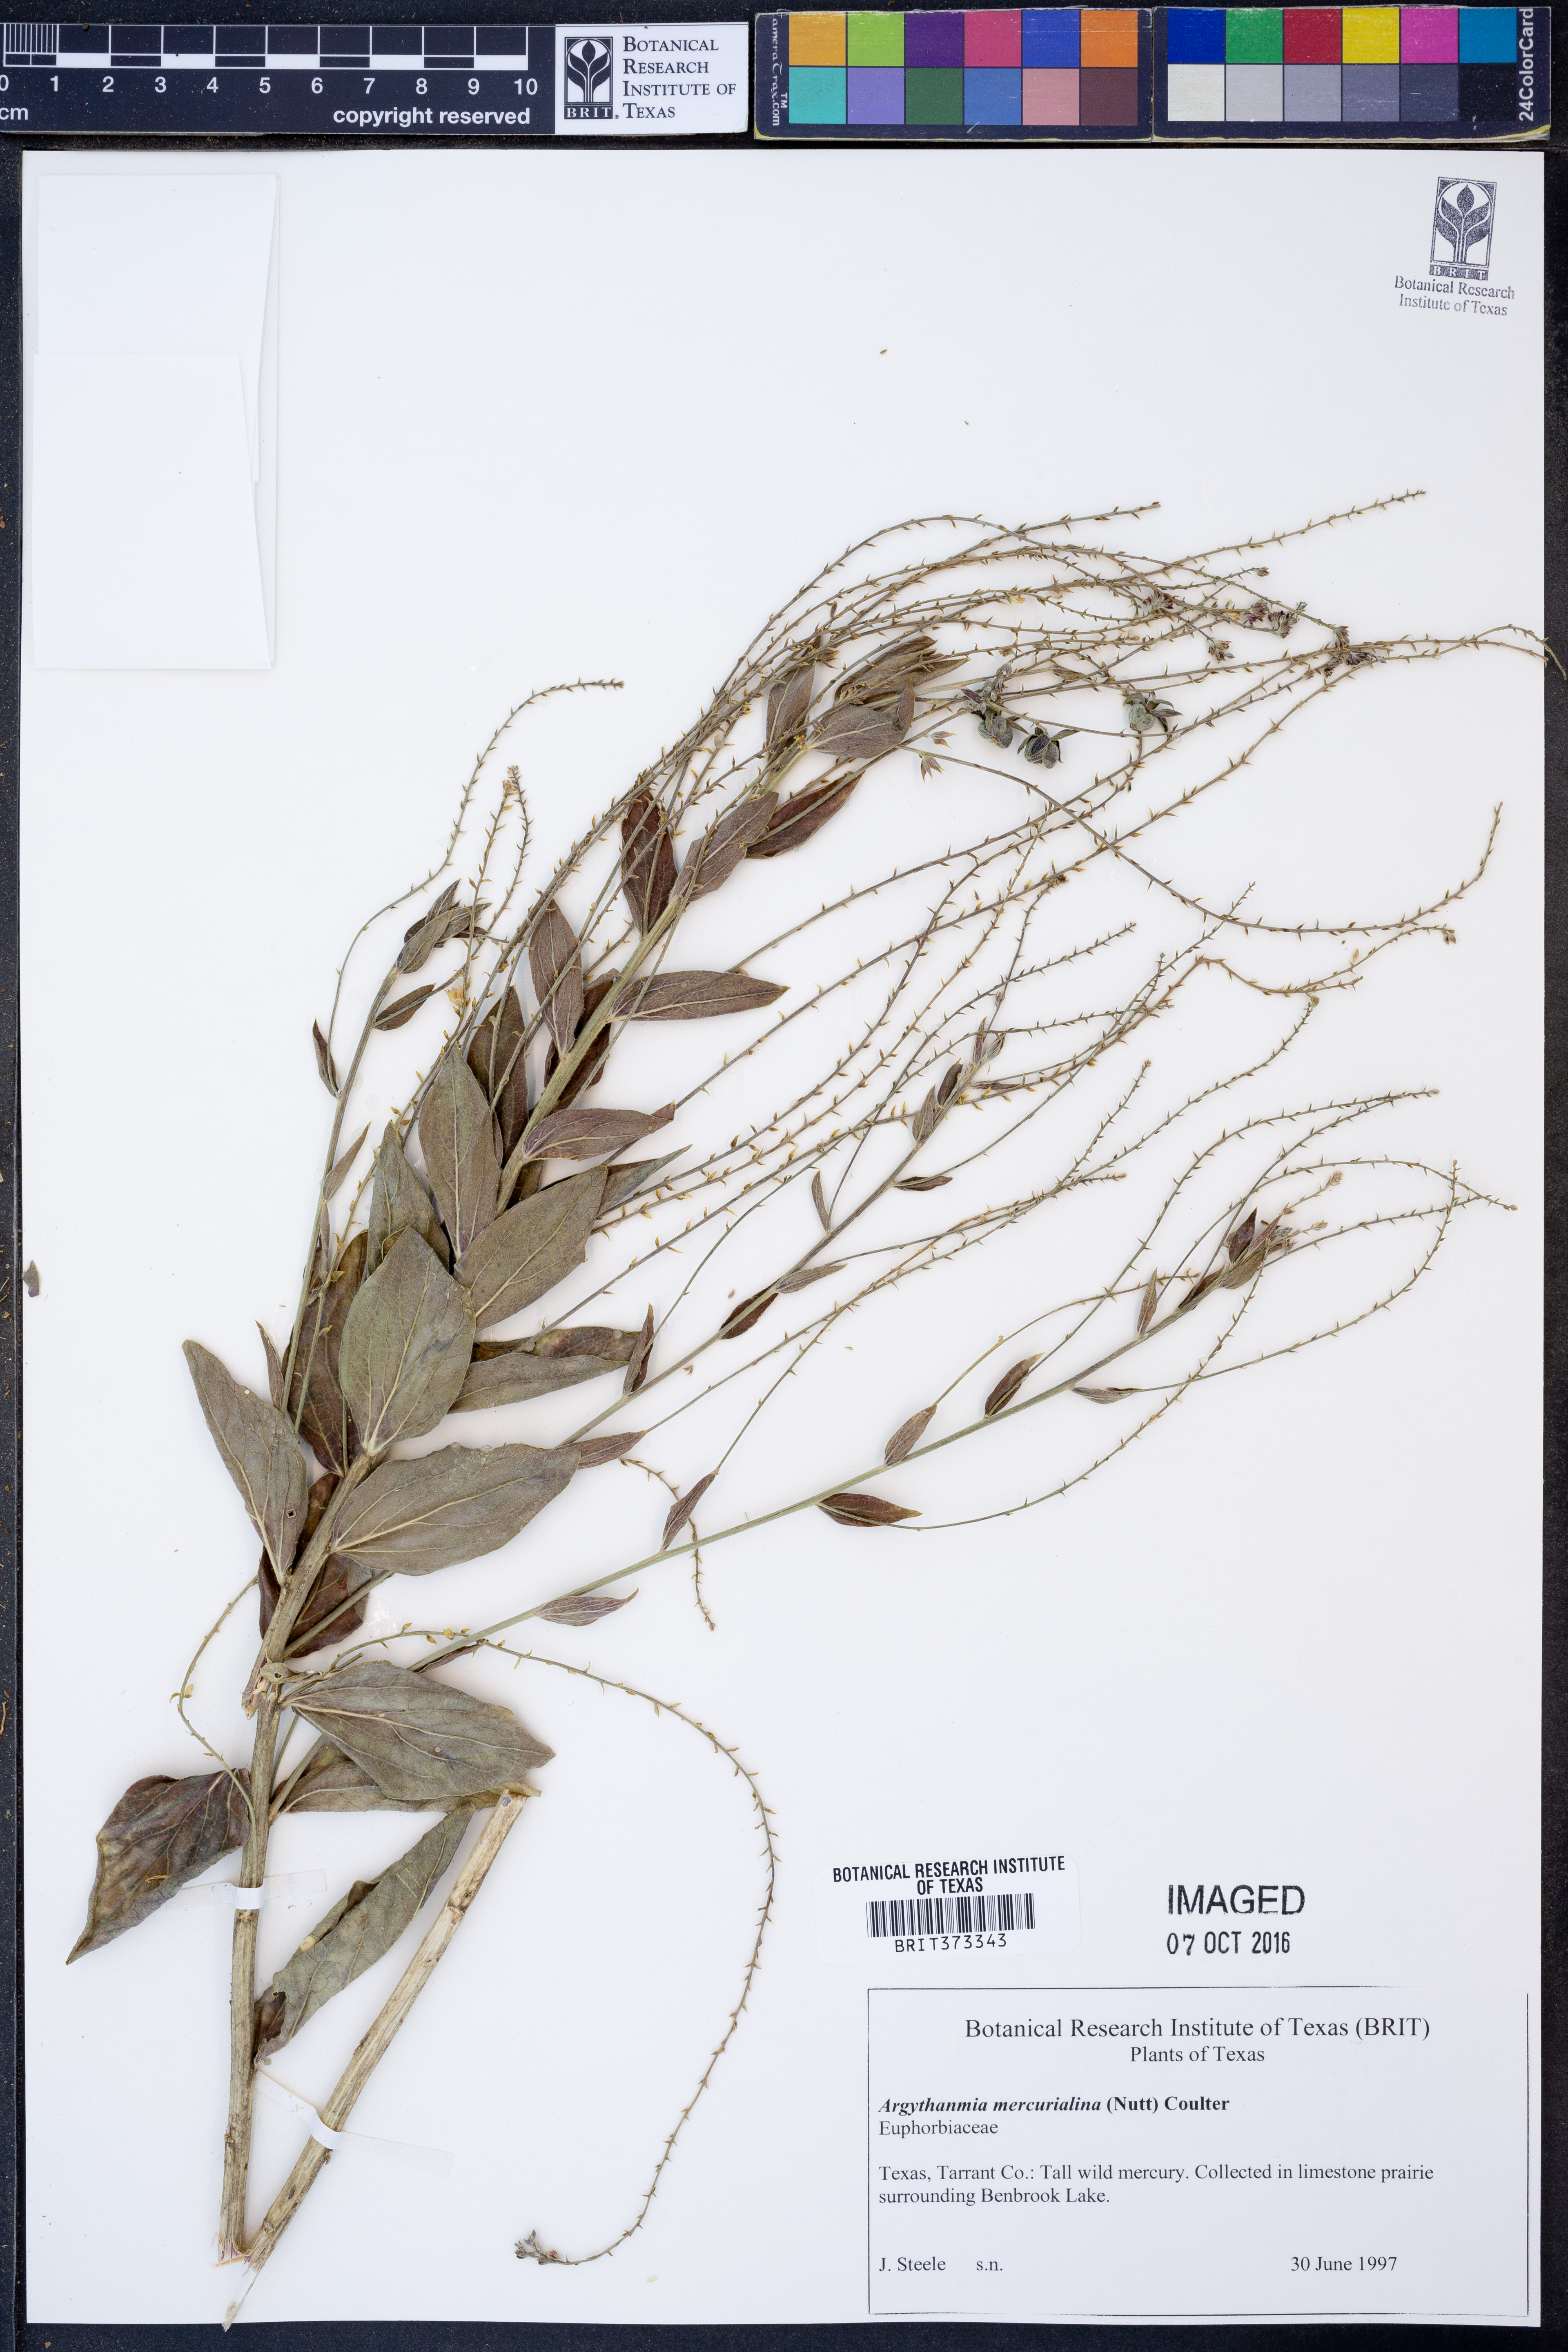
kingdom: Plantae
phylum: Tracheophyta
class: Magnoliopsida
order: Malpighiales
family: Euphorbiaceae
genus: Ditaxis
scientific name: Ditaxis mercurialina
